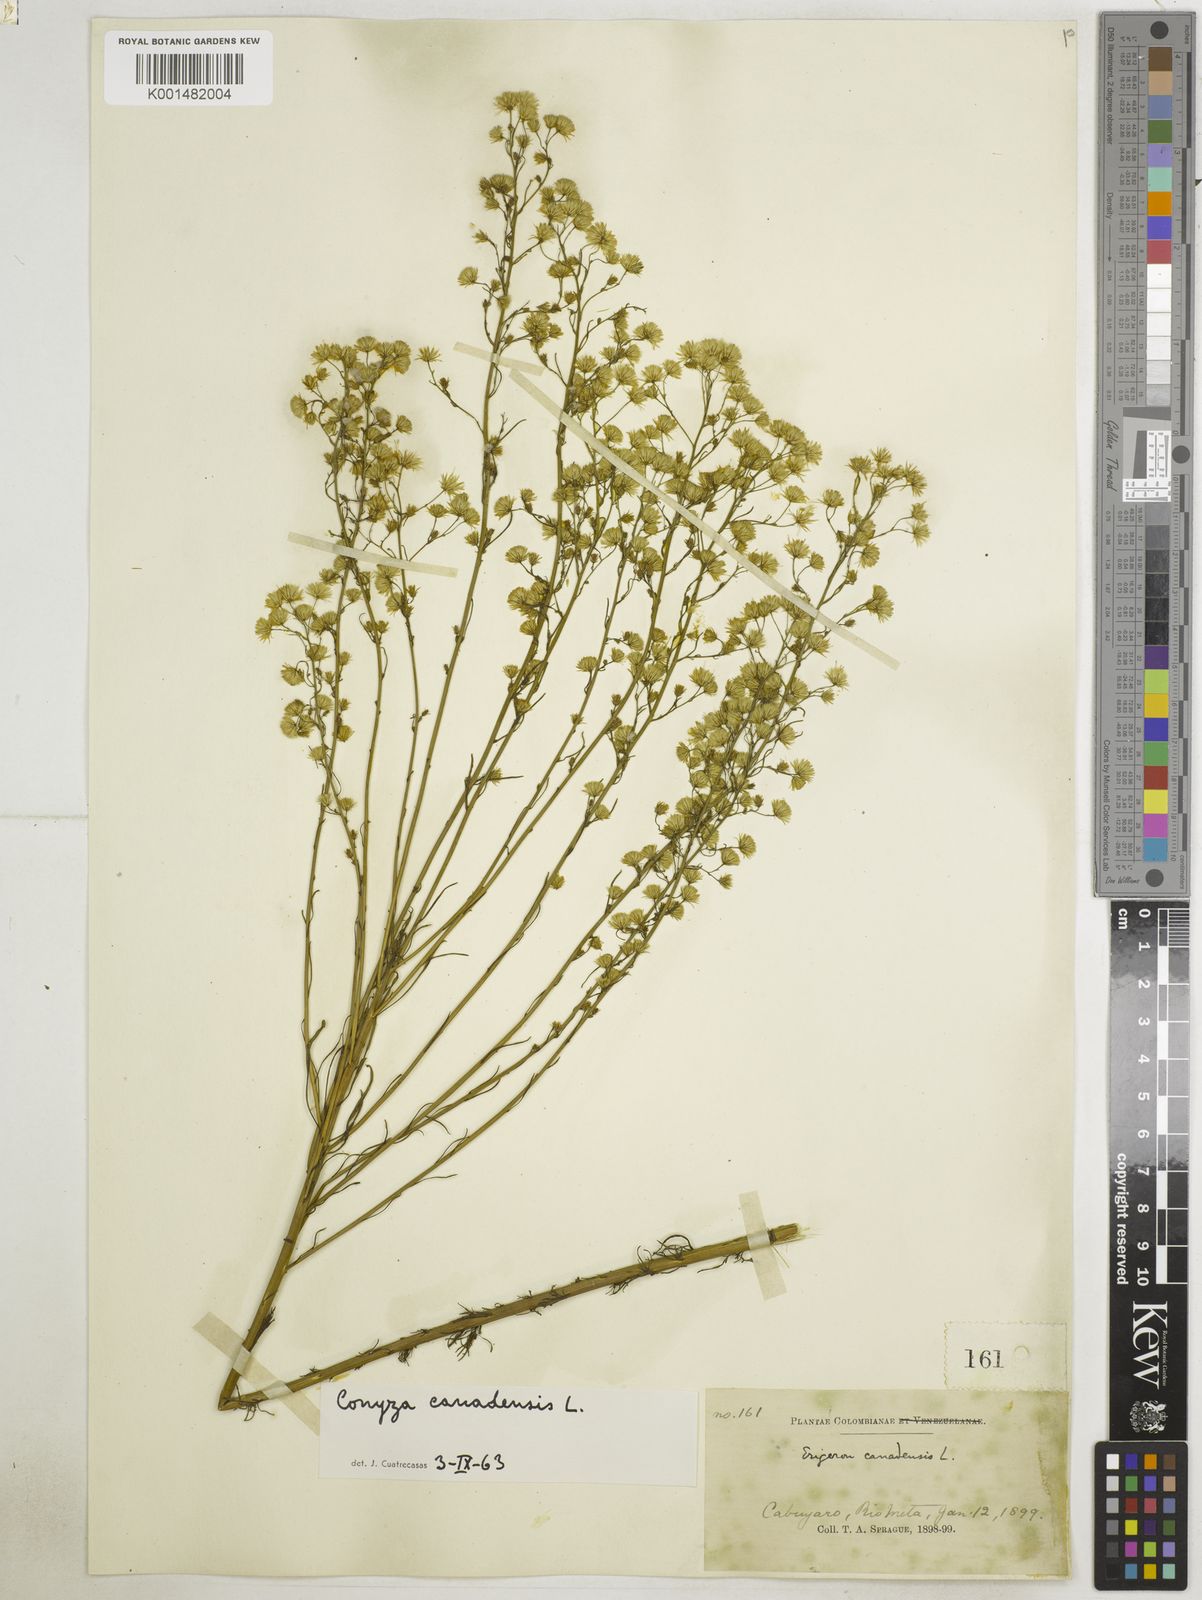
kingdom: Plantae
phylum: Tracheophyta
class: Magnoliopsida
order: Asterales
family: Asteraceae
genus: Erigeron
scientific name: Erigeron canadensis
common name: Canadian fleabane
